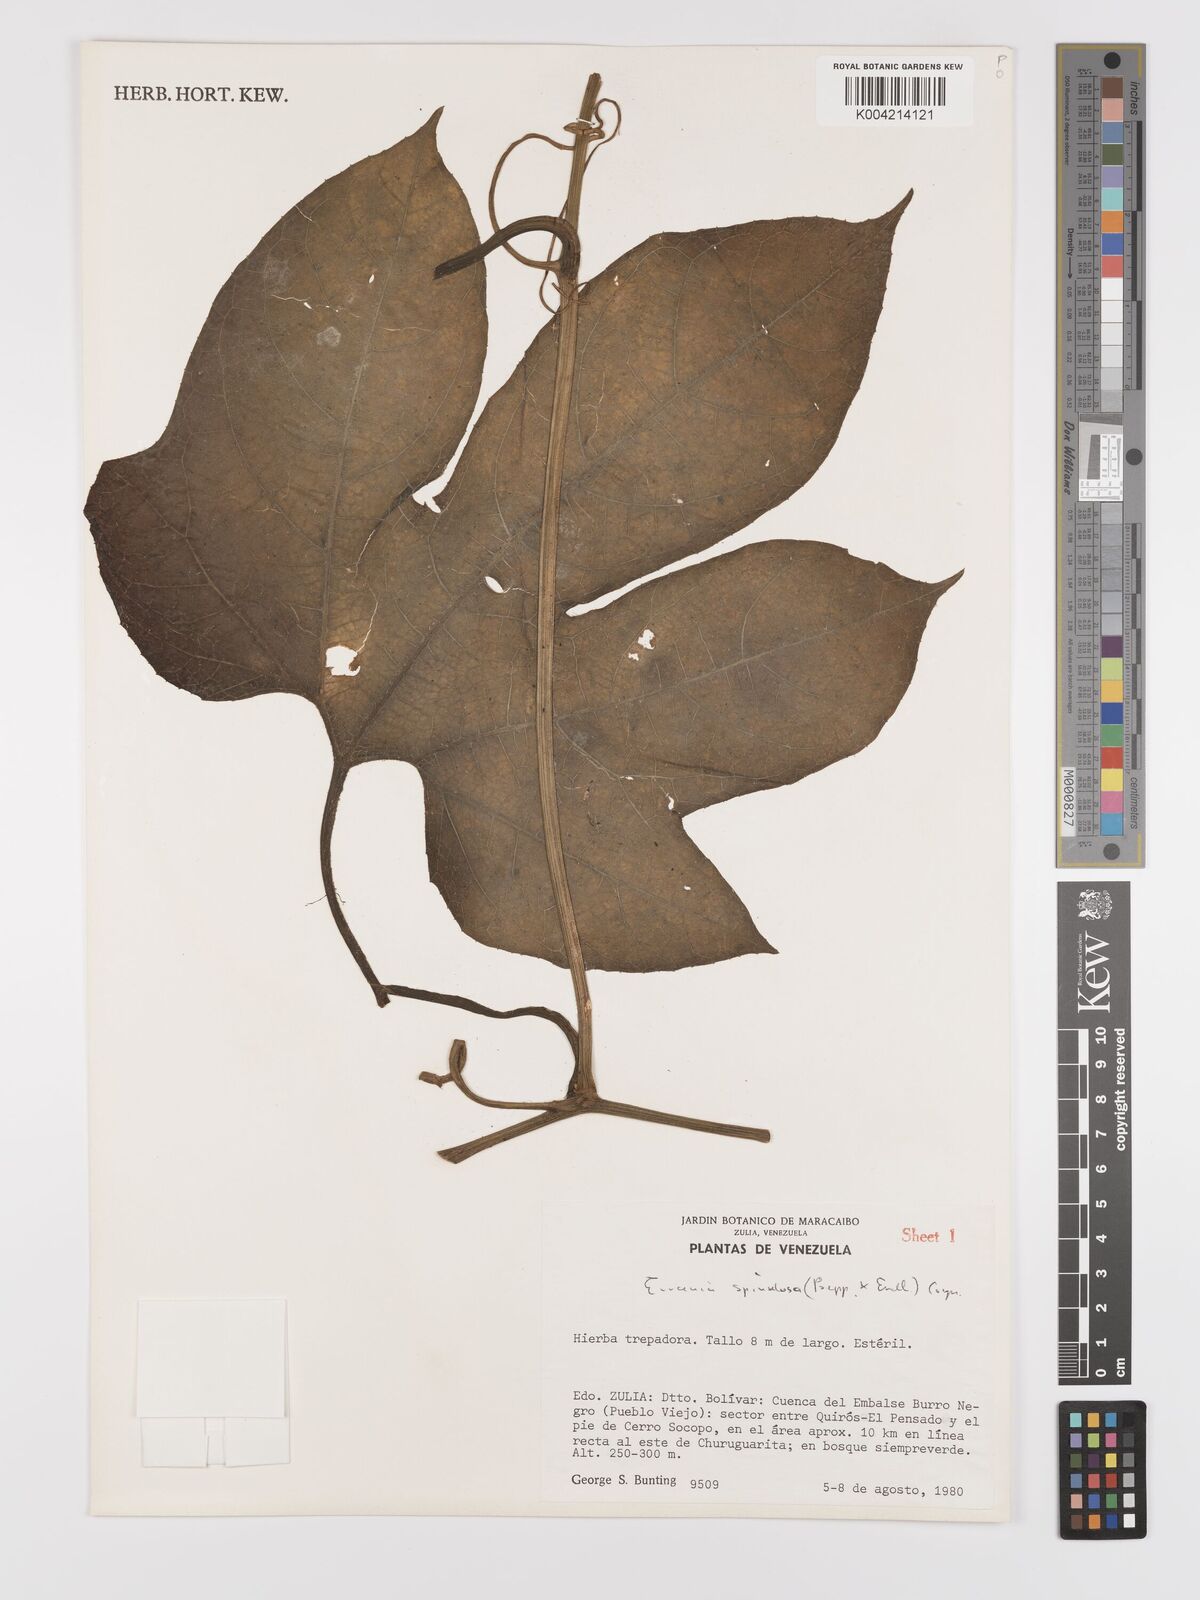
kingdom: Plantae
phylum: Tracheophyta
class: Magnoliopsida
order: Cucurbitales
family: Cucurbitaceae
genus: Gurania
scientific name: Gurania lobata
